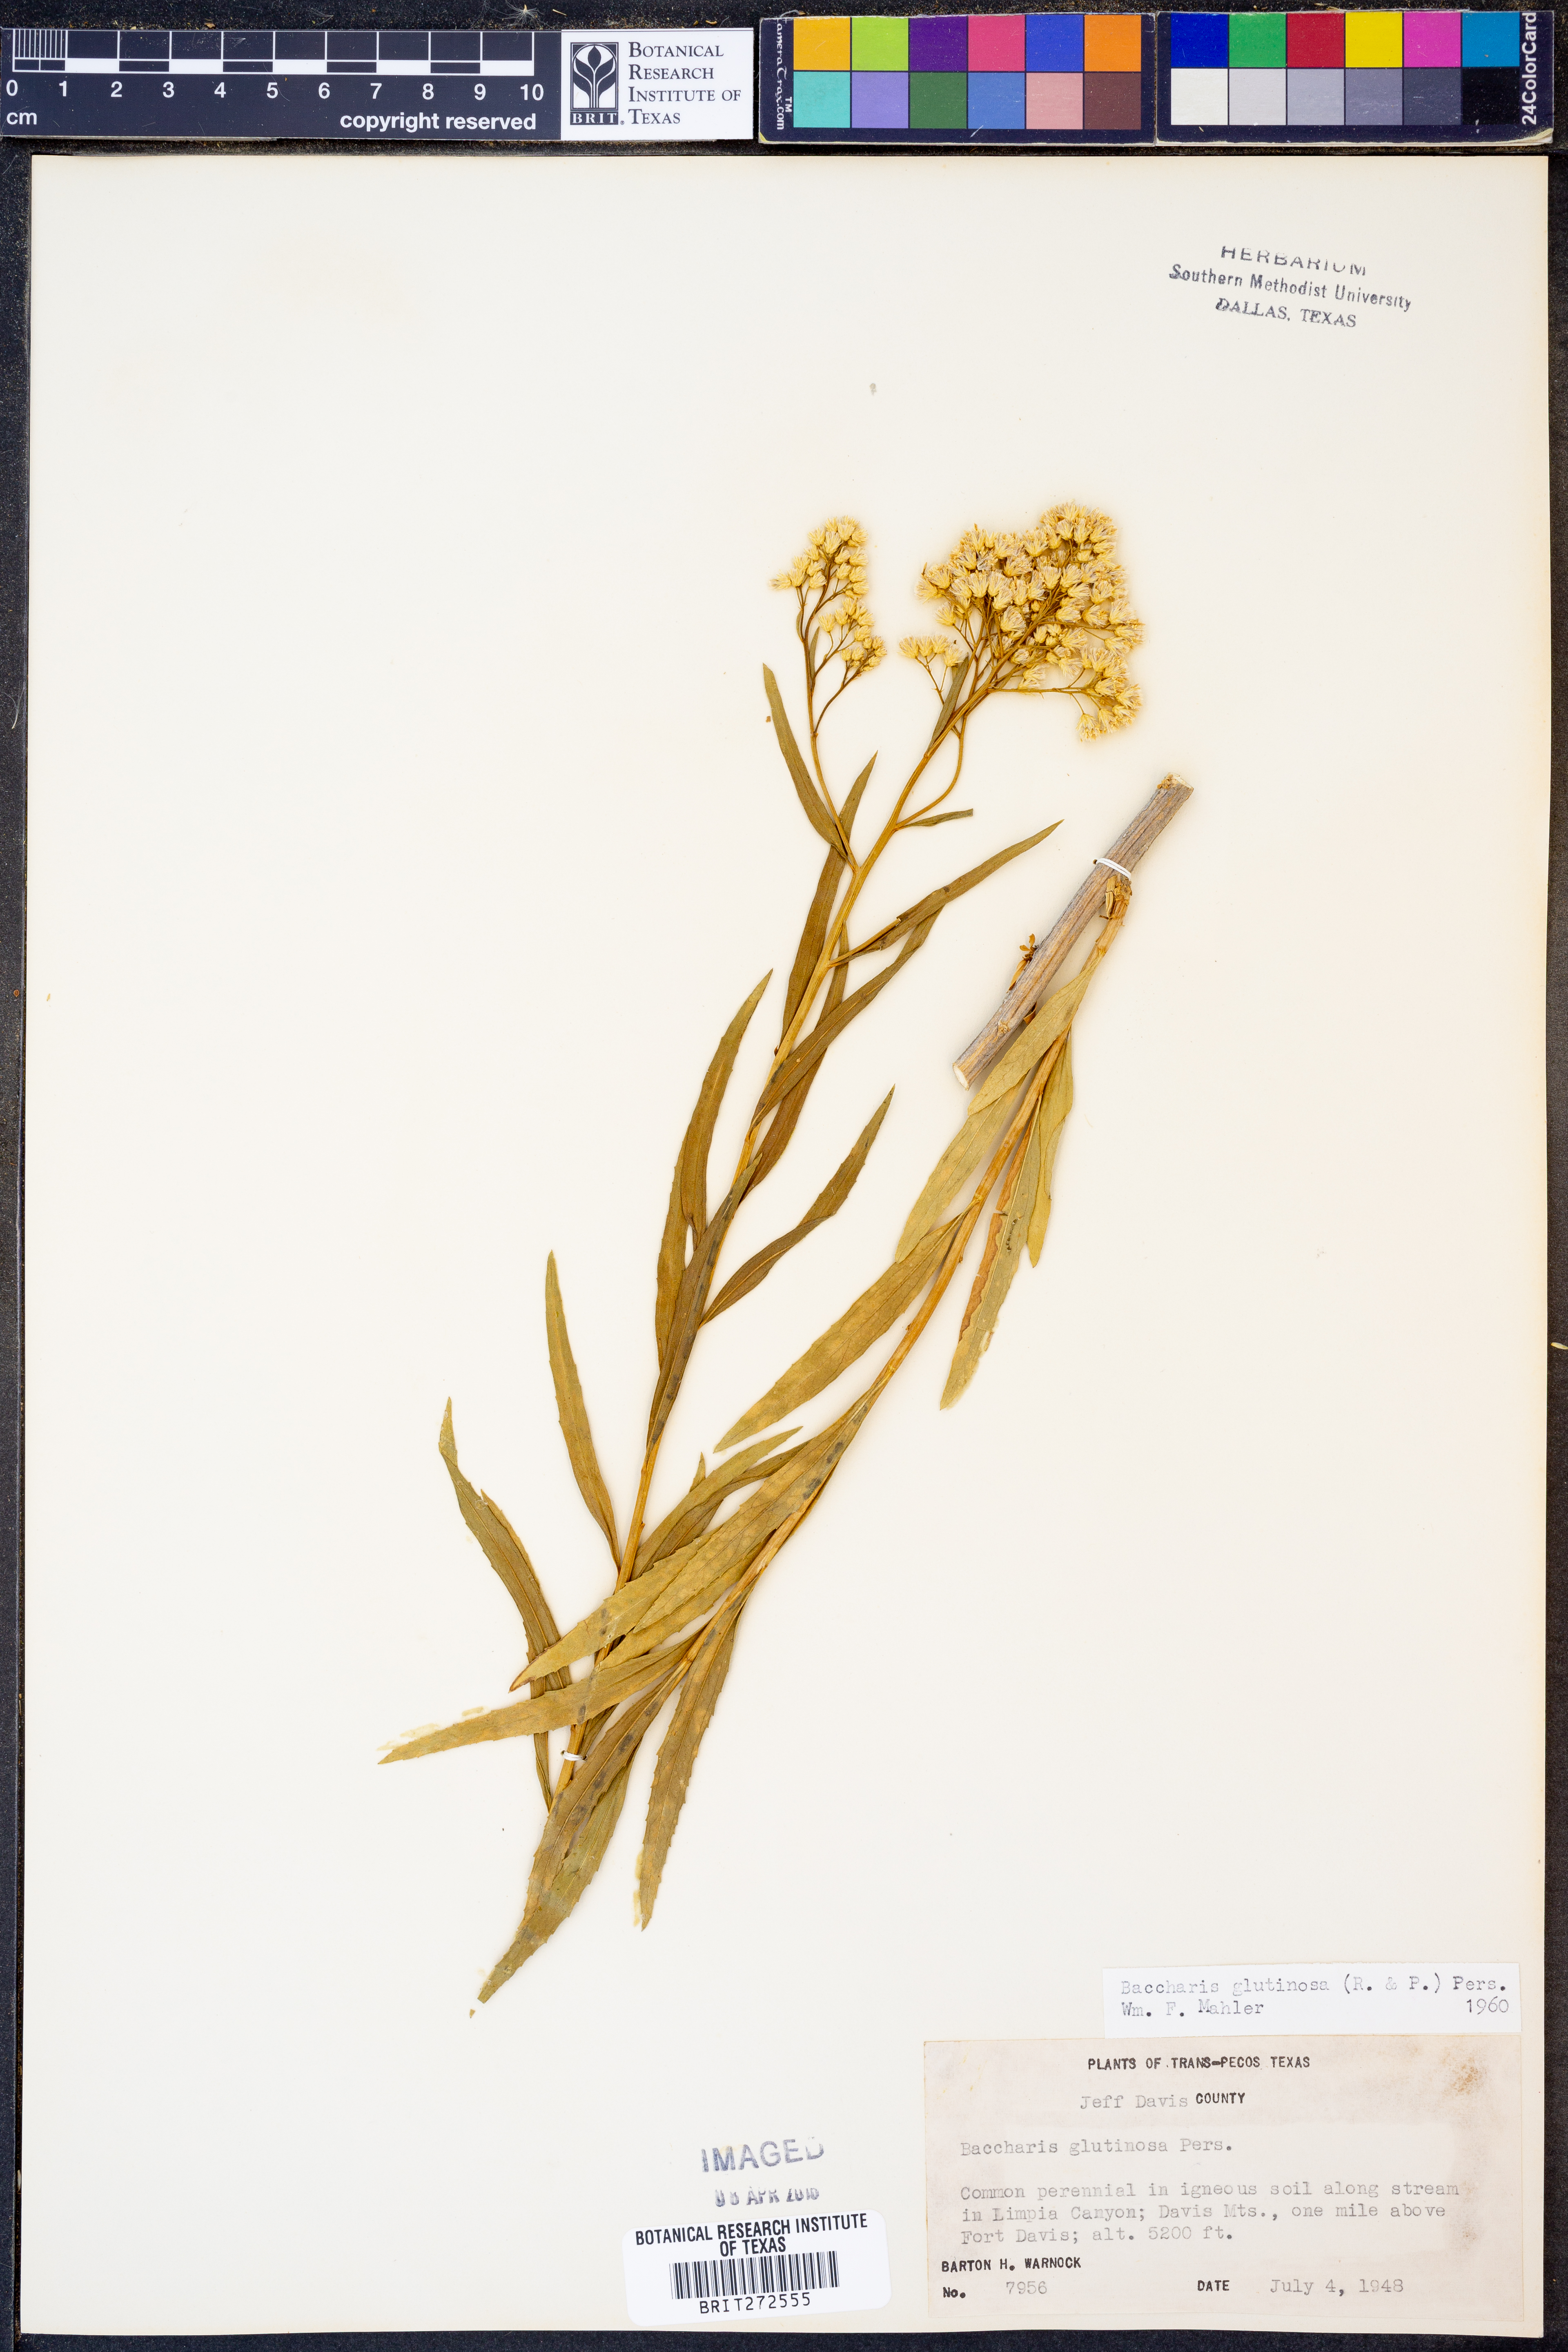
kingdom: Plantae
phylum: Tracheophyta
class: Magnoliopsida
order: Asterales
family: Asteraceae
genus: Baccharis
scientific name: Baccharis glutinosa
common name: Saltmarsh baccharis
